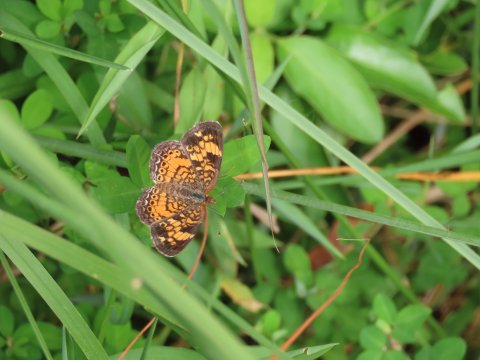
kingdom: Animalia
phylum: Arthropoda
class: Insecta
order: Lepidoptera
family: Nymphalidae
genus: Phyciodes
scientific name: Phyciodes tharos
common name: Pearl Crescent
